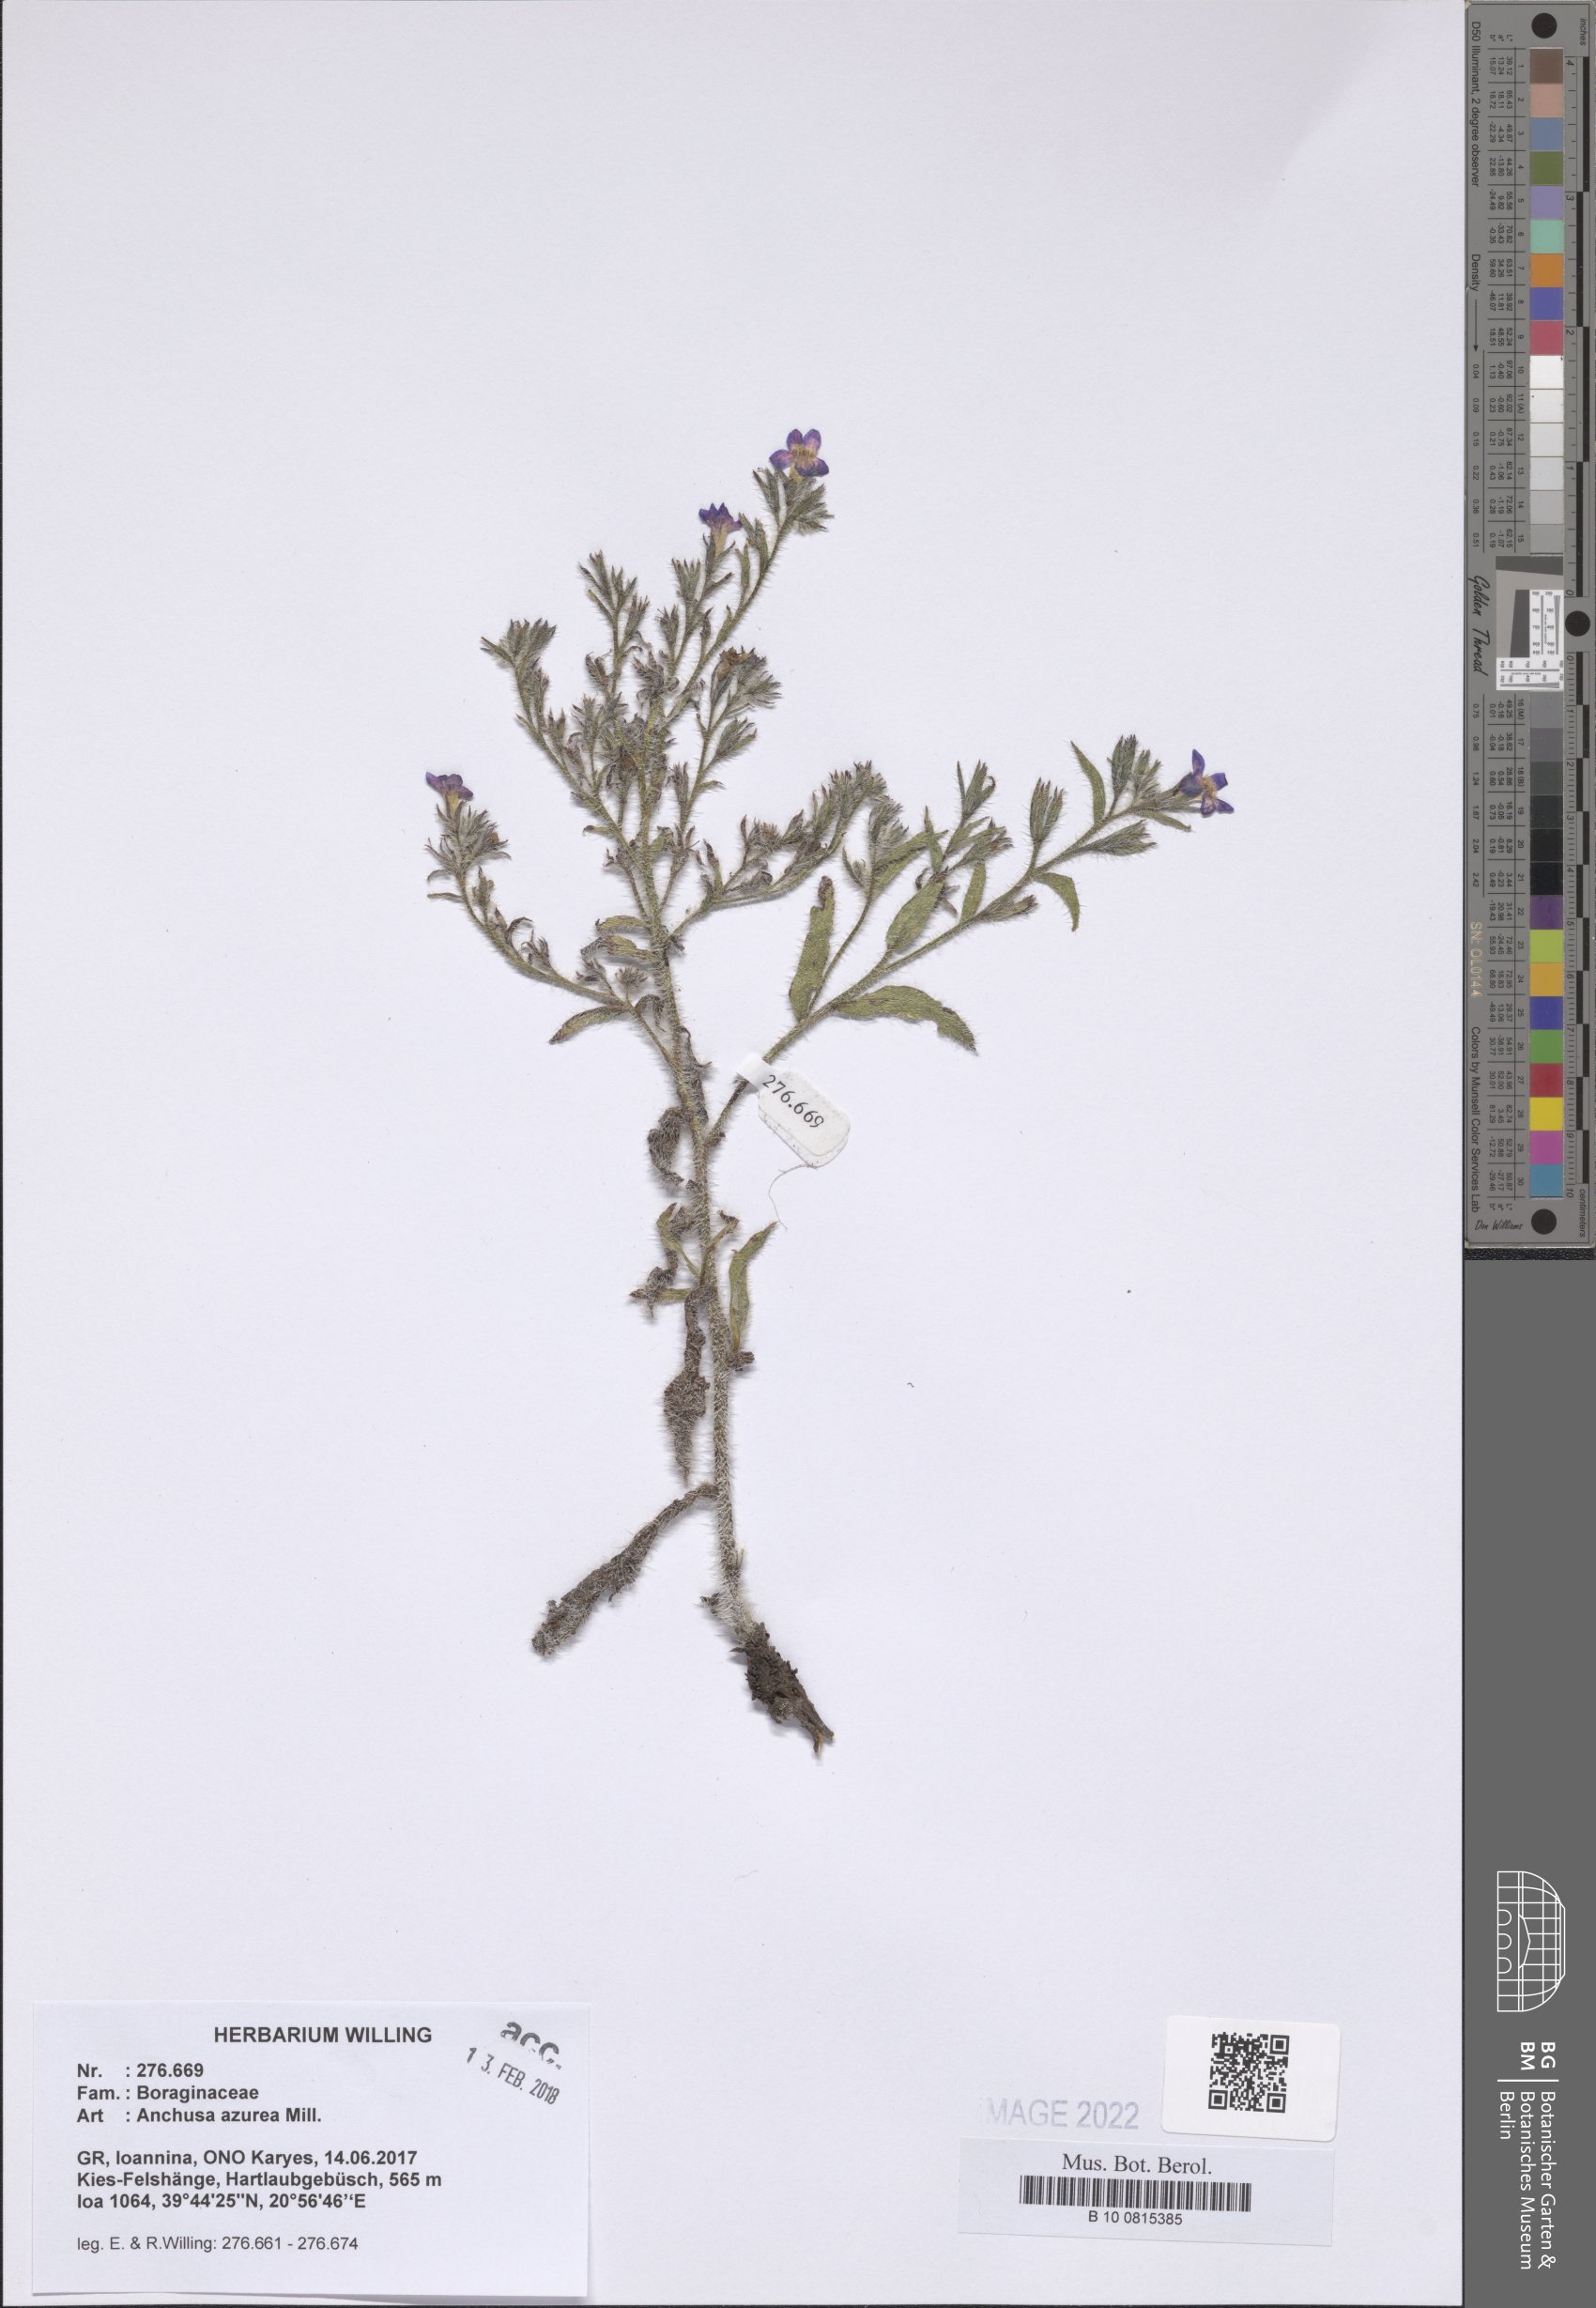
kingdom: Plantae
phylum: Tracheophyta
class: Magnoliopsida
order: Boraginales
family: Boraginaceae
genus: Anchusa
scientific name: Anchusa azurea
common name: Garden anchusa
